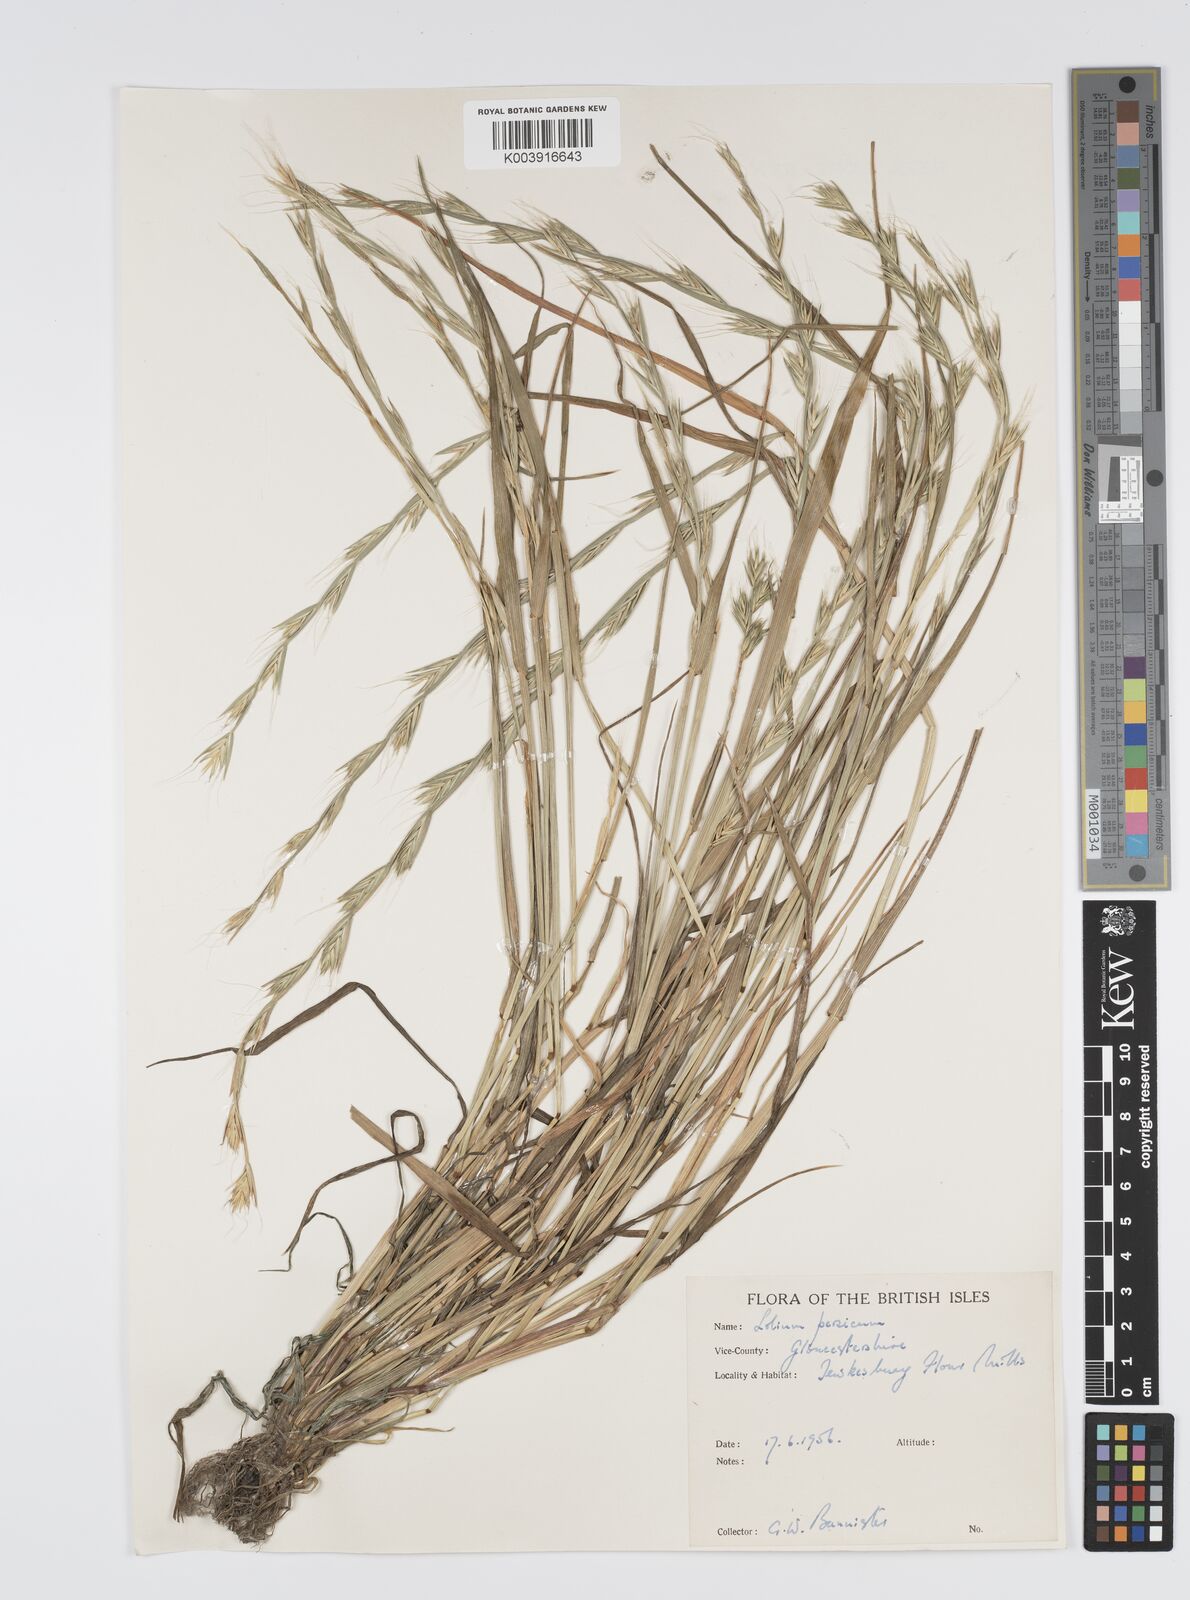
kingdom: Plantae
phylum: Tracheophyta
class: Liliopsida
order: Poales
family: Poaceae
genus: Lolium
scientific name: Lolium persicum
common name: Persian ryegrass
